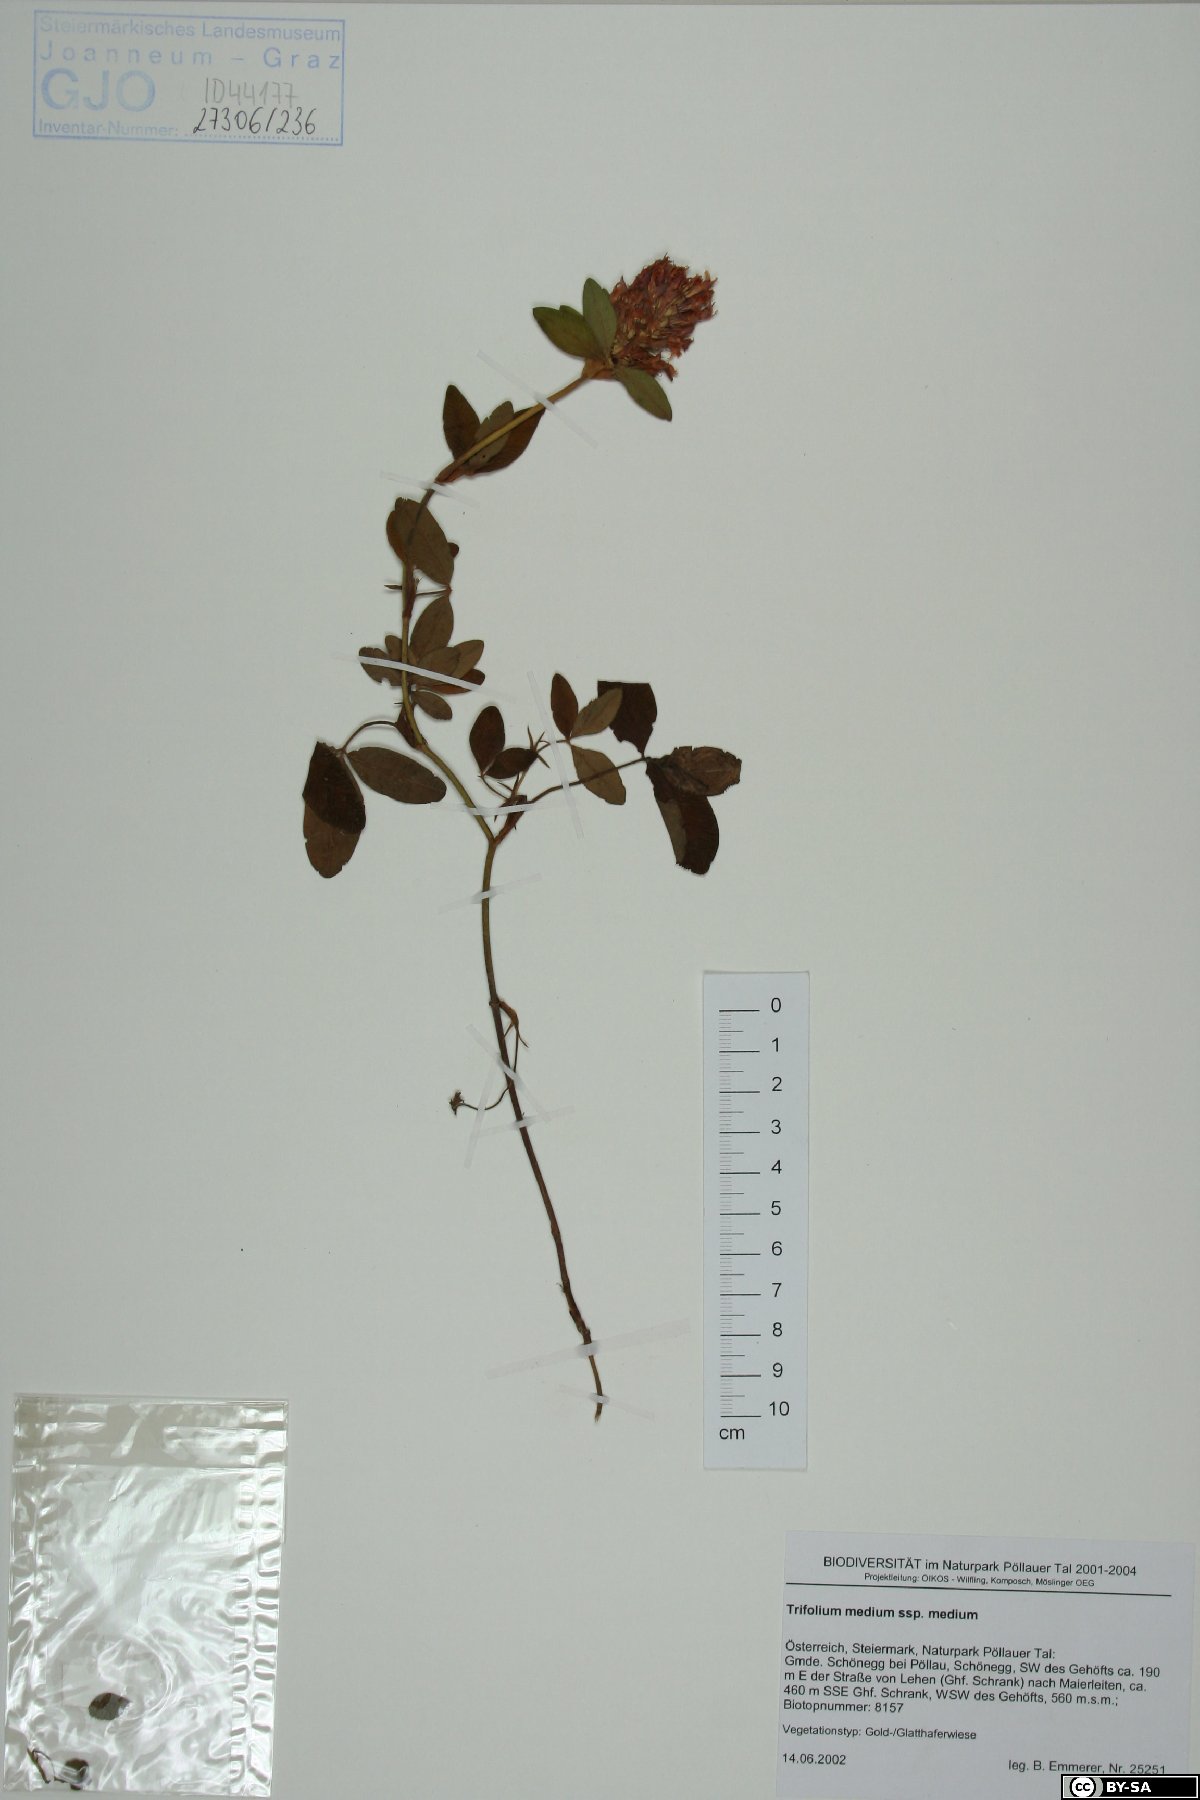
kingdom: Plantae
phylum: Tracheophyta
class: Magnoliopsida
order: Fabales
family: Fabaceae
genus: Trifolium
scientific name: Trifolium medium
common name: Zigzag clover
